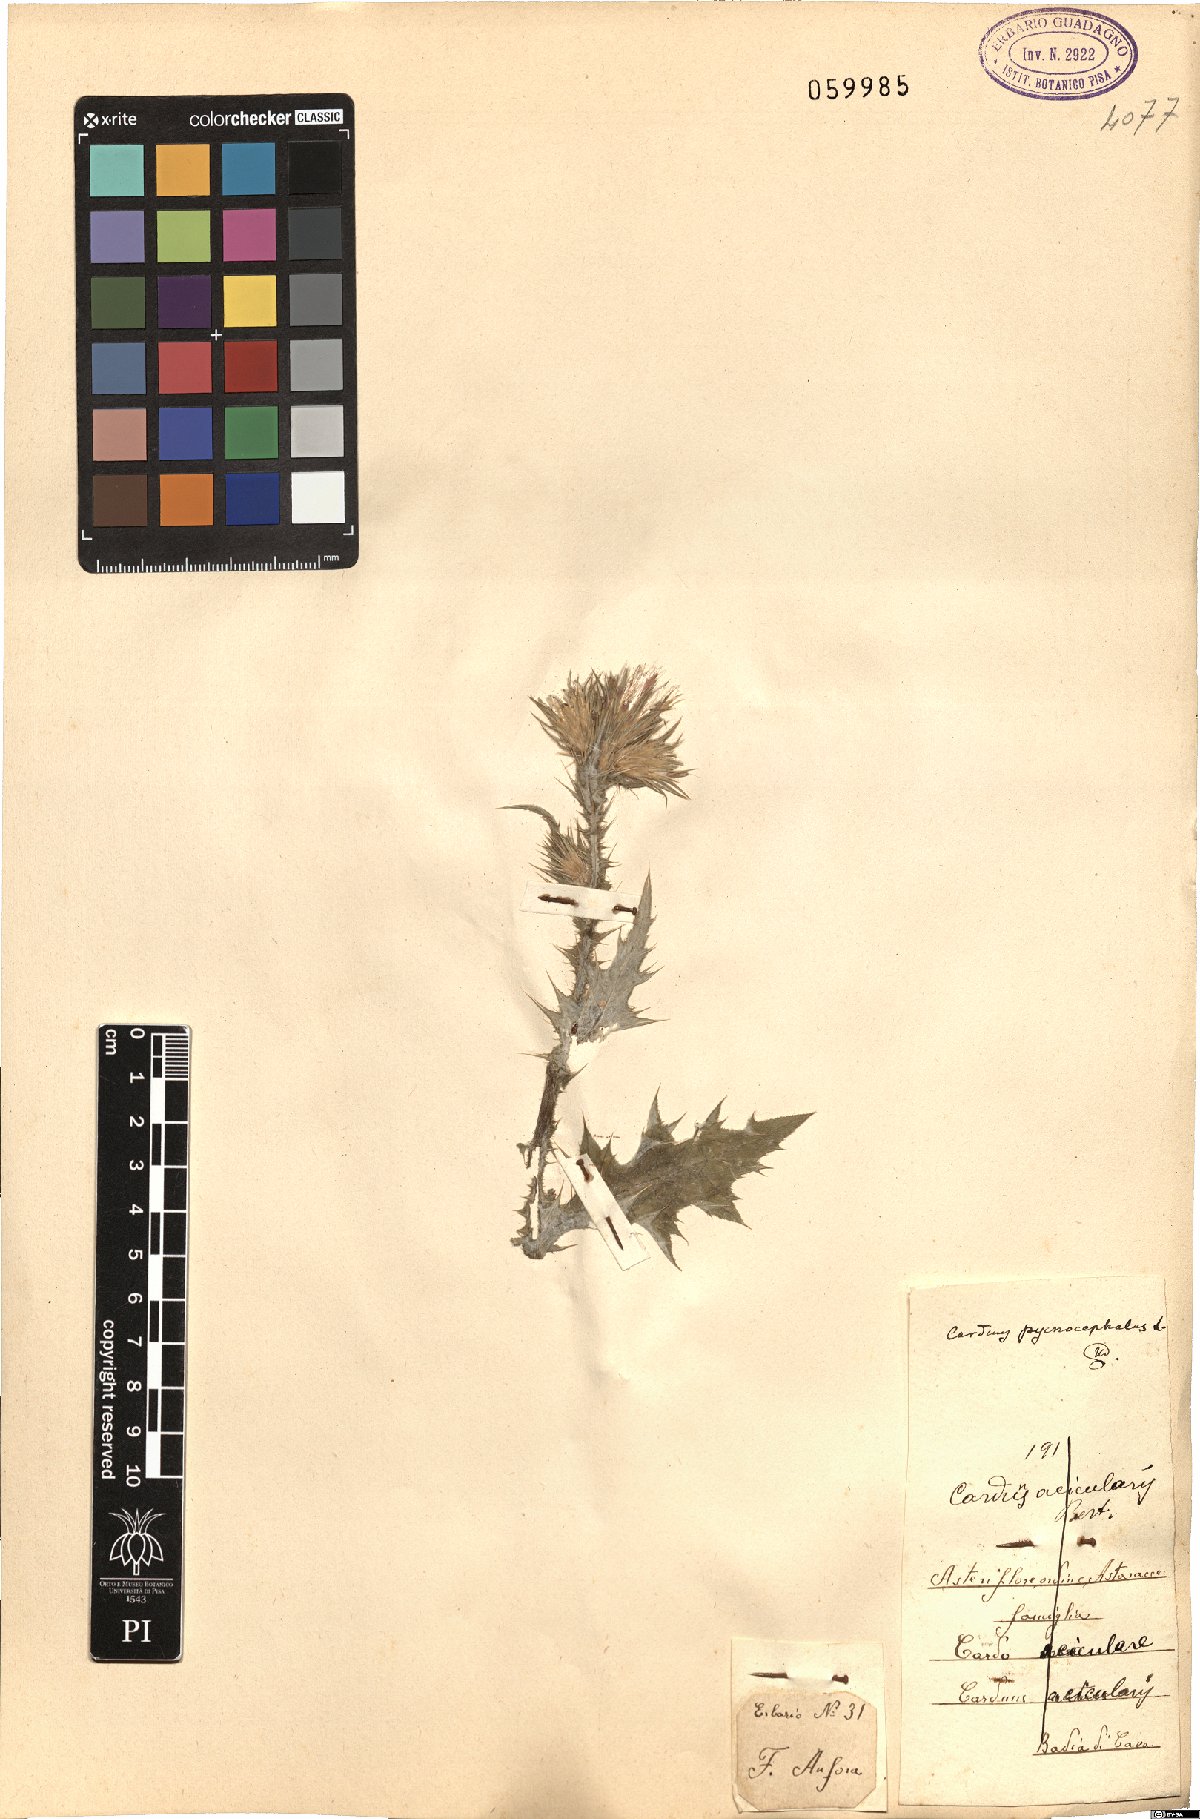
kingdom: Plantae
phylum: Tracheophyta
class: Magnoliopsida
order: Asterales
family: Asteraceae
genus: Carduus
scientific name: Carduus pycnocephalus
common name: Plymouth thistle
